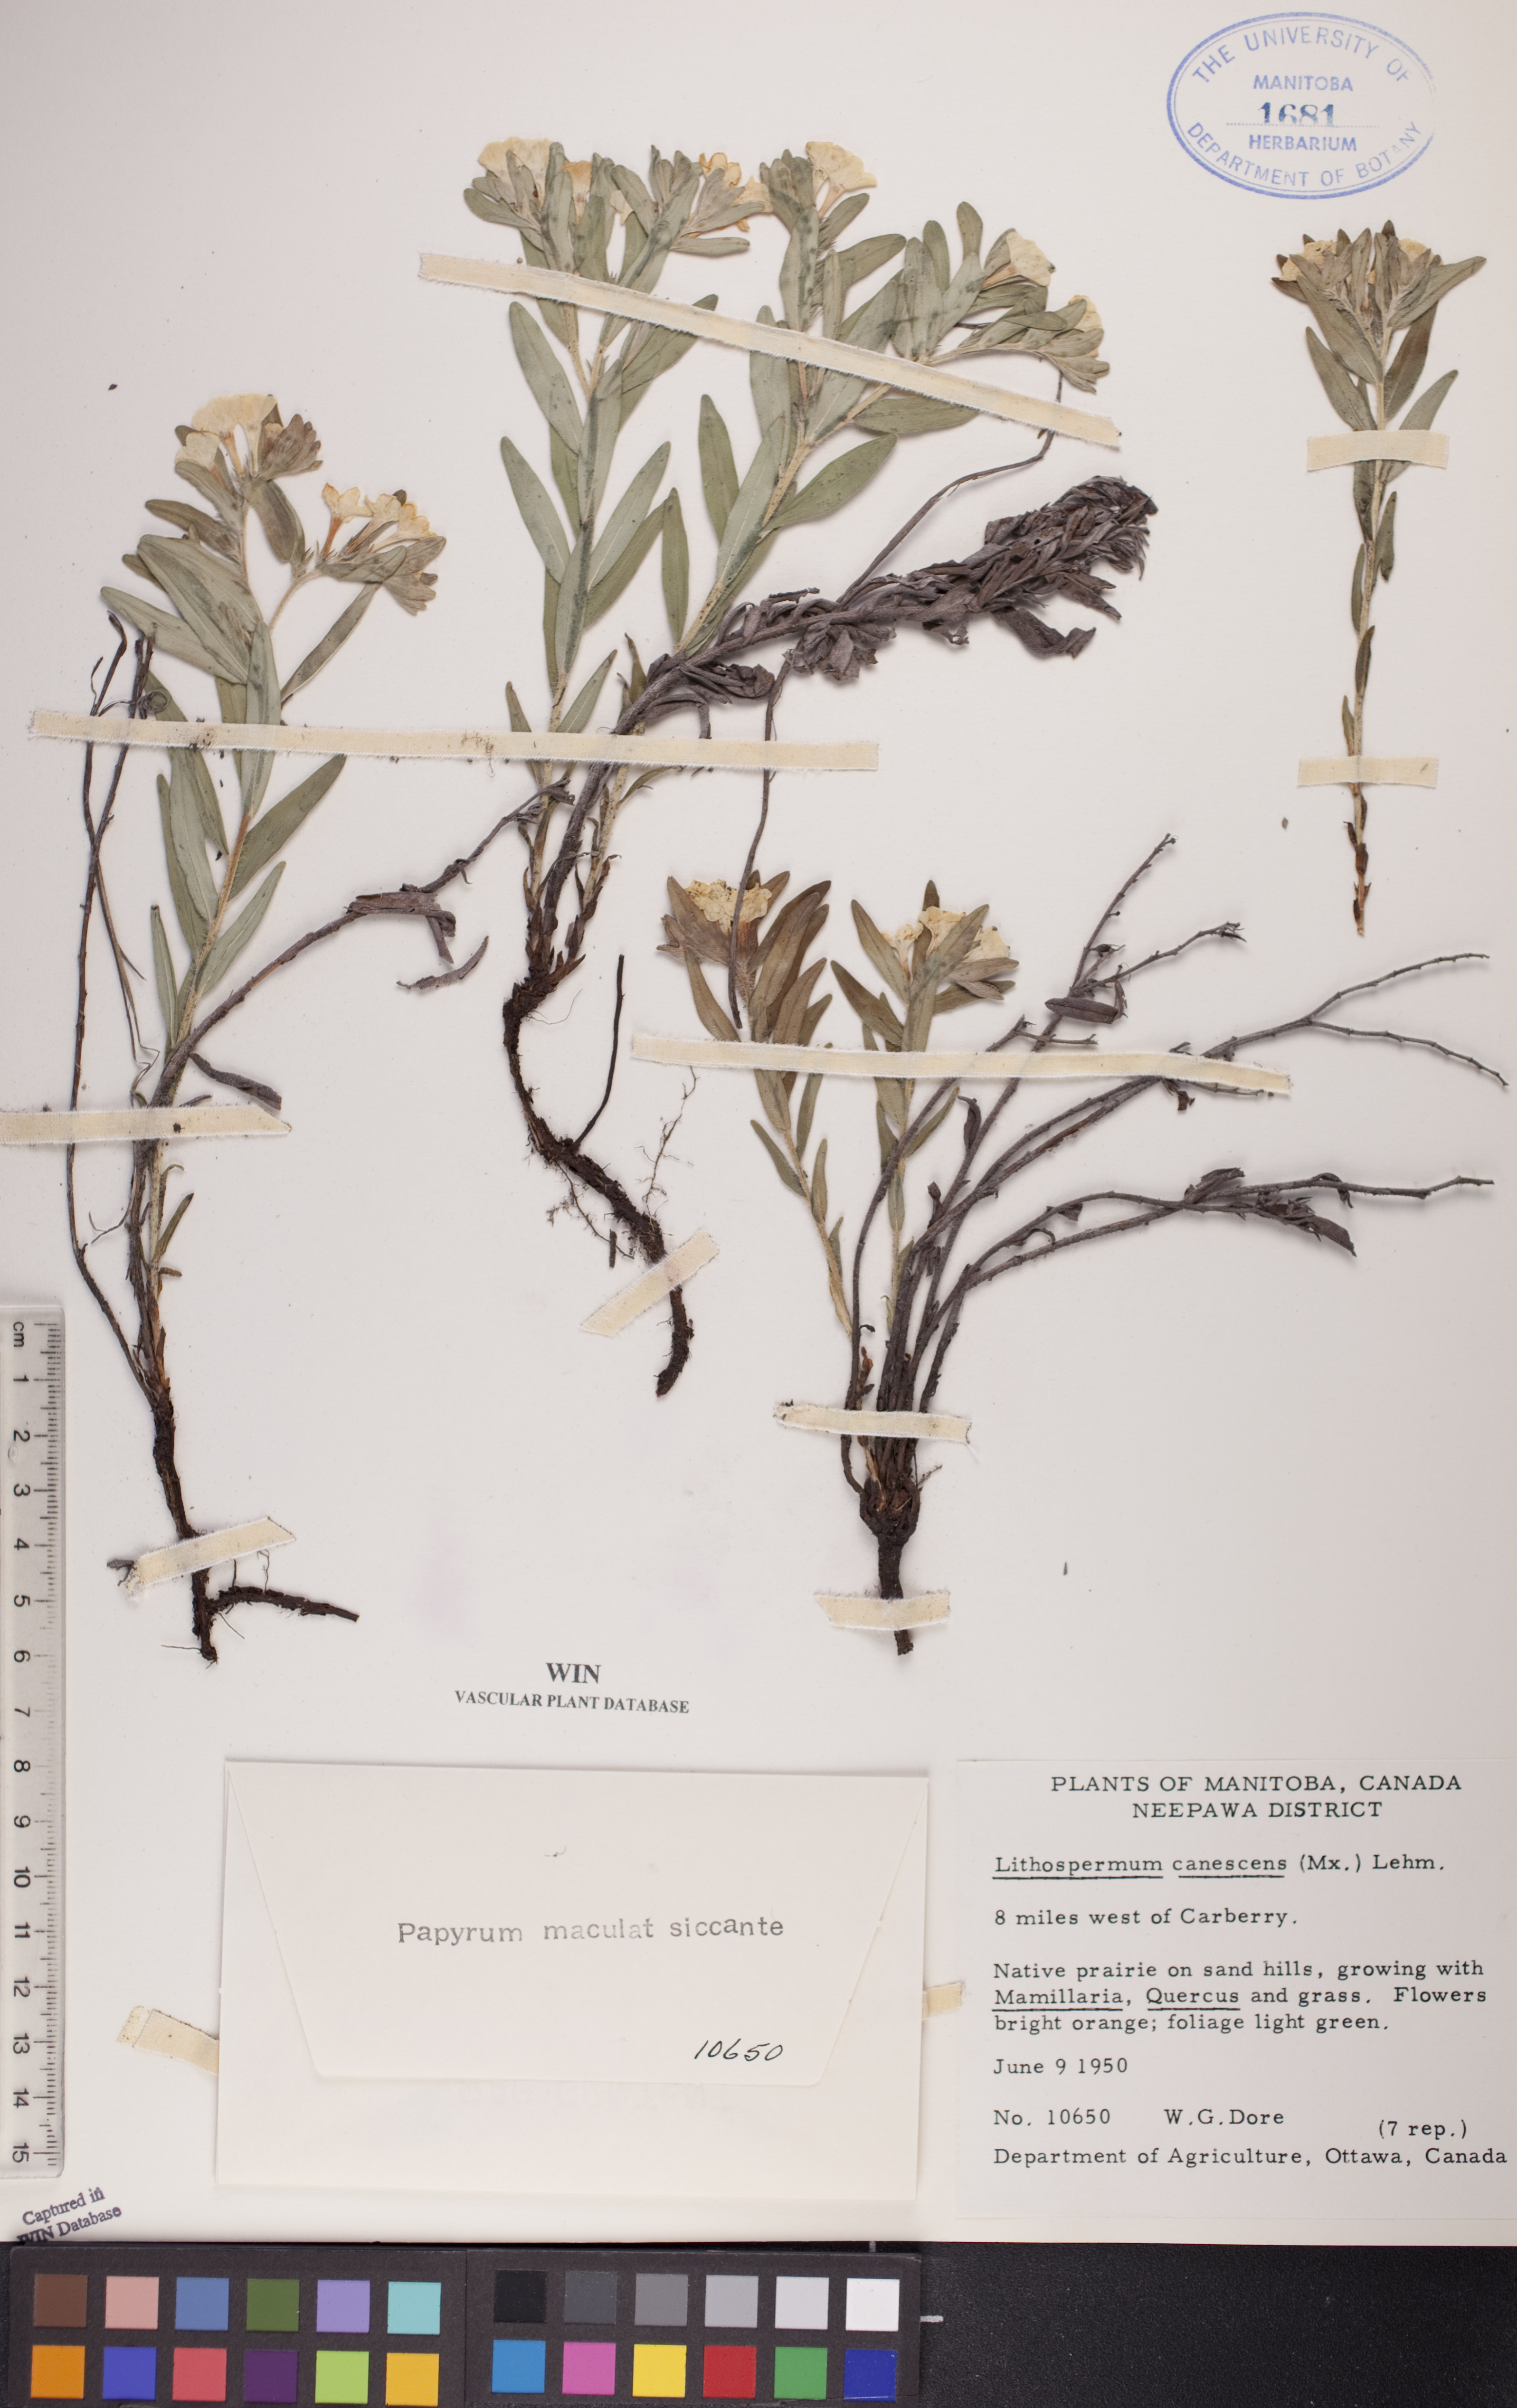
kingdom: Plantae
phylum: Tracheophyta
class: Magnoliopsida
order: Boraginales
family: Boraginaceae
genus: Lithospermum
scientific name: Lithospermum canescens
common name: Hoary puccoon
